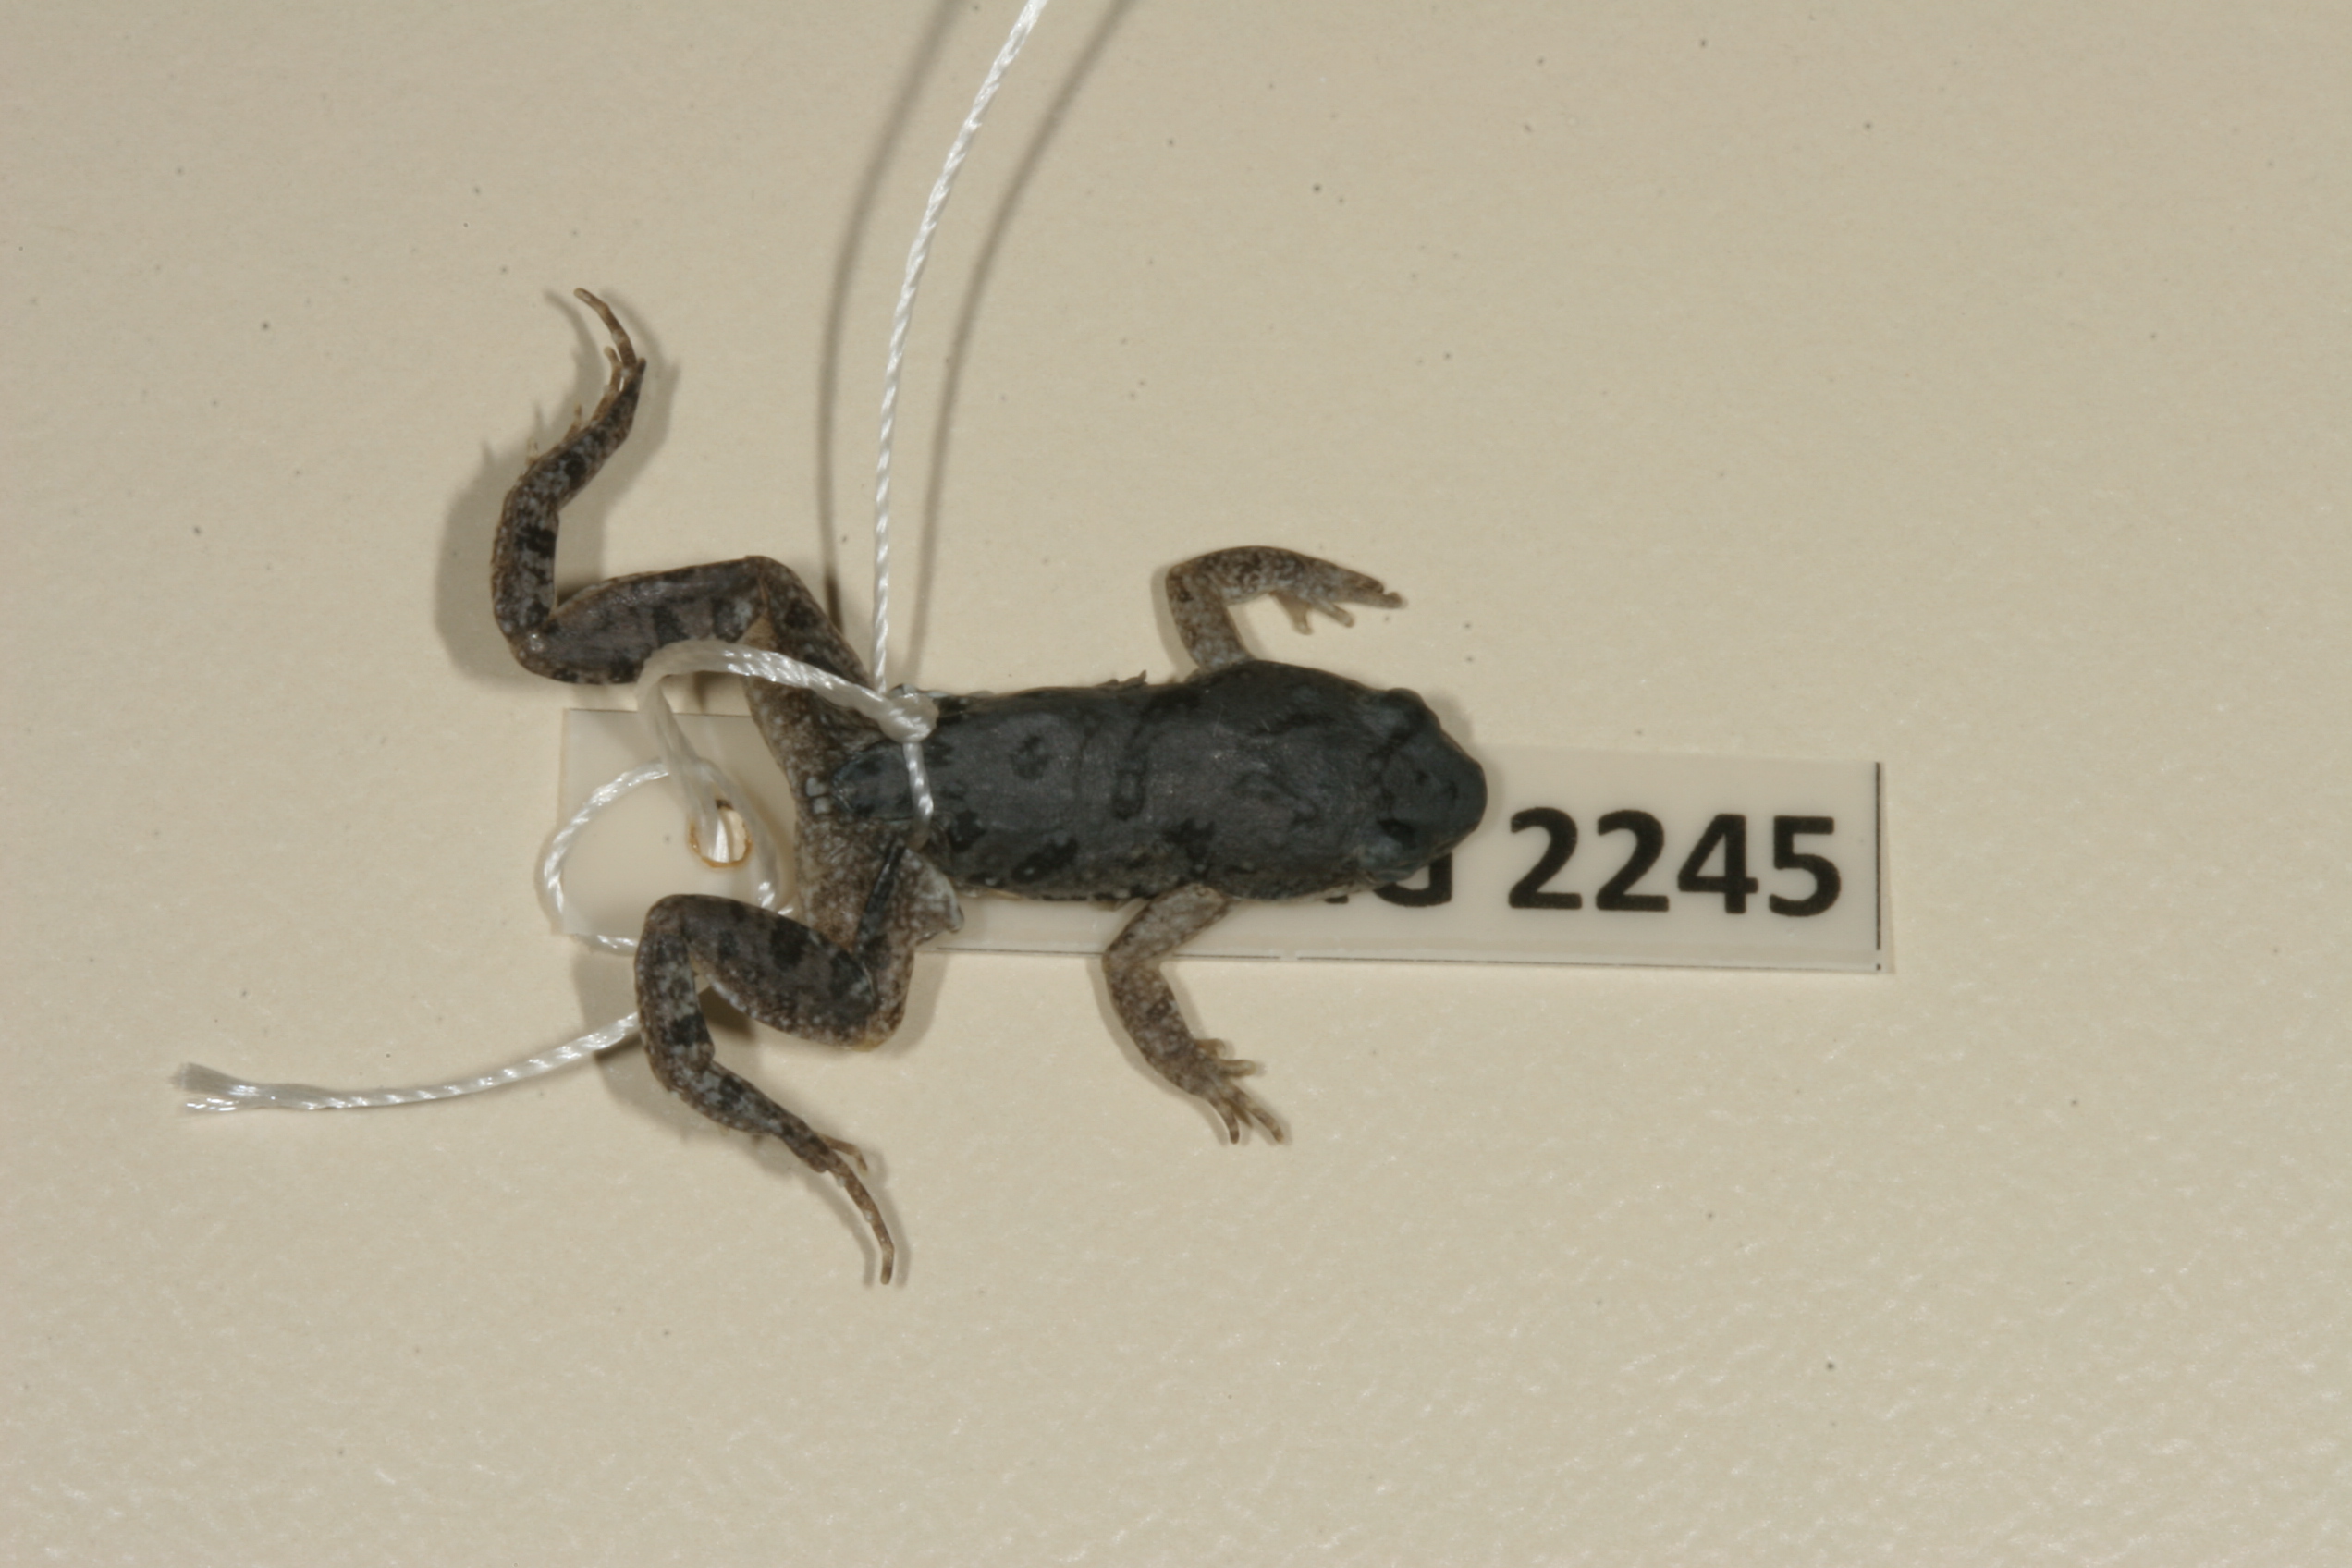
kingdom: Animalia
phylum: Chordata
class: Amphibia
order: Anura
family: Pyxicephalidae
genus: Cacosternum
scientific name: Cacosternum boettgeri
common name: Boettger's frog
